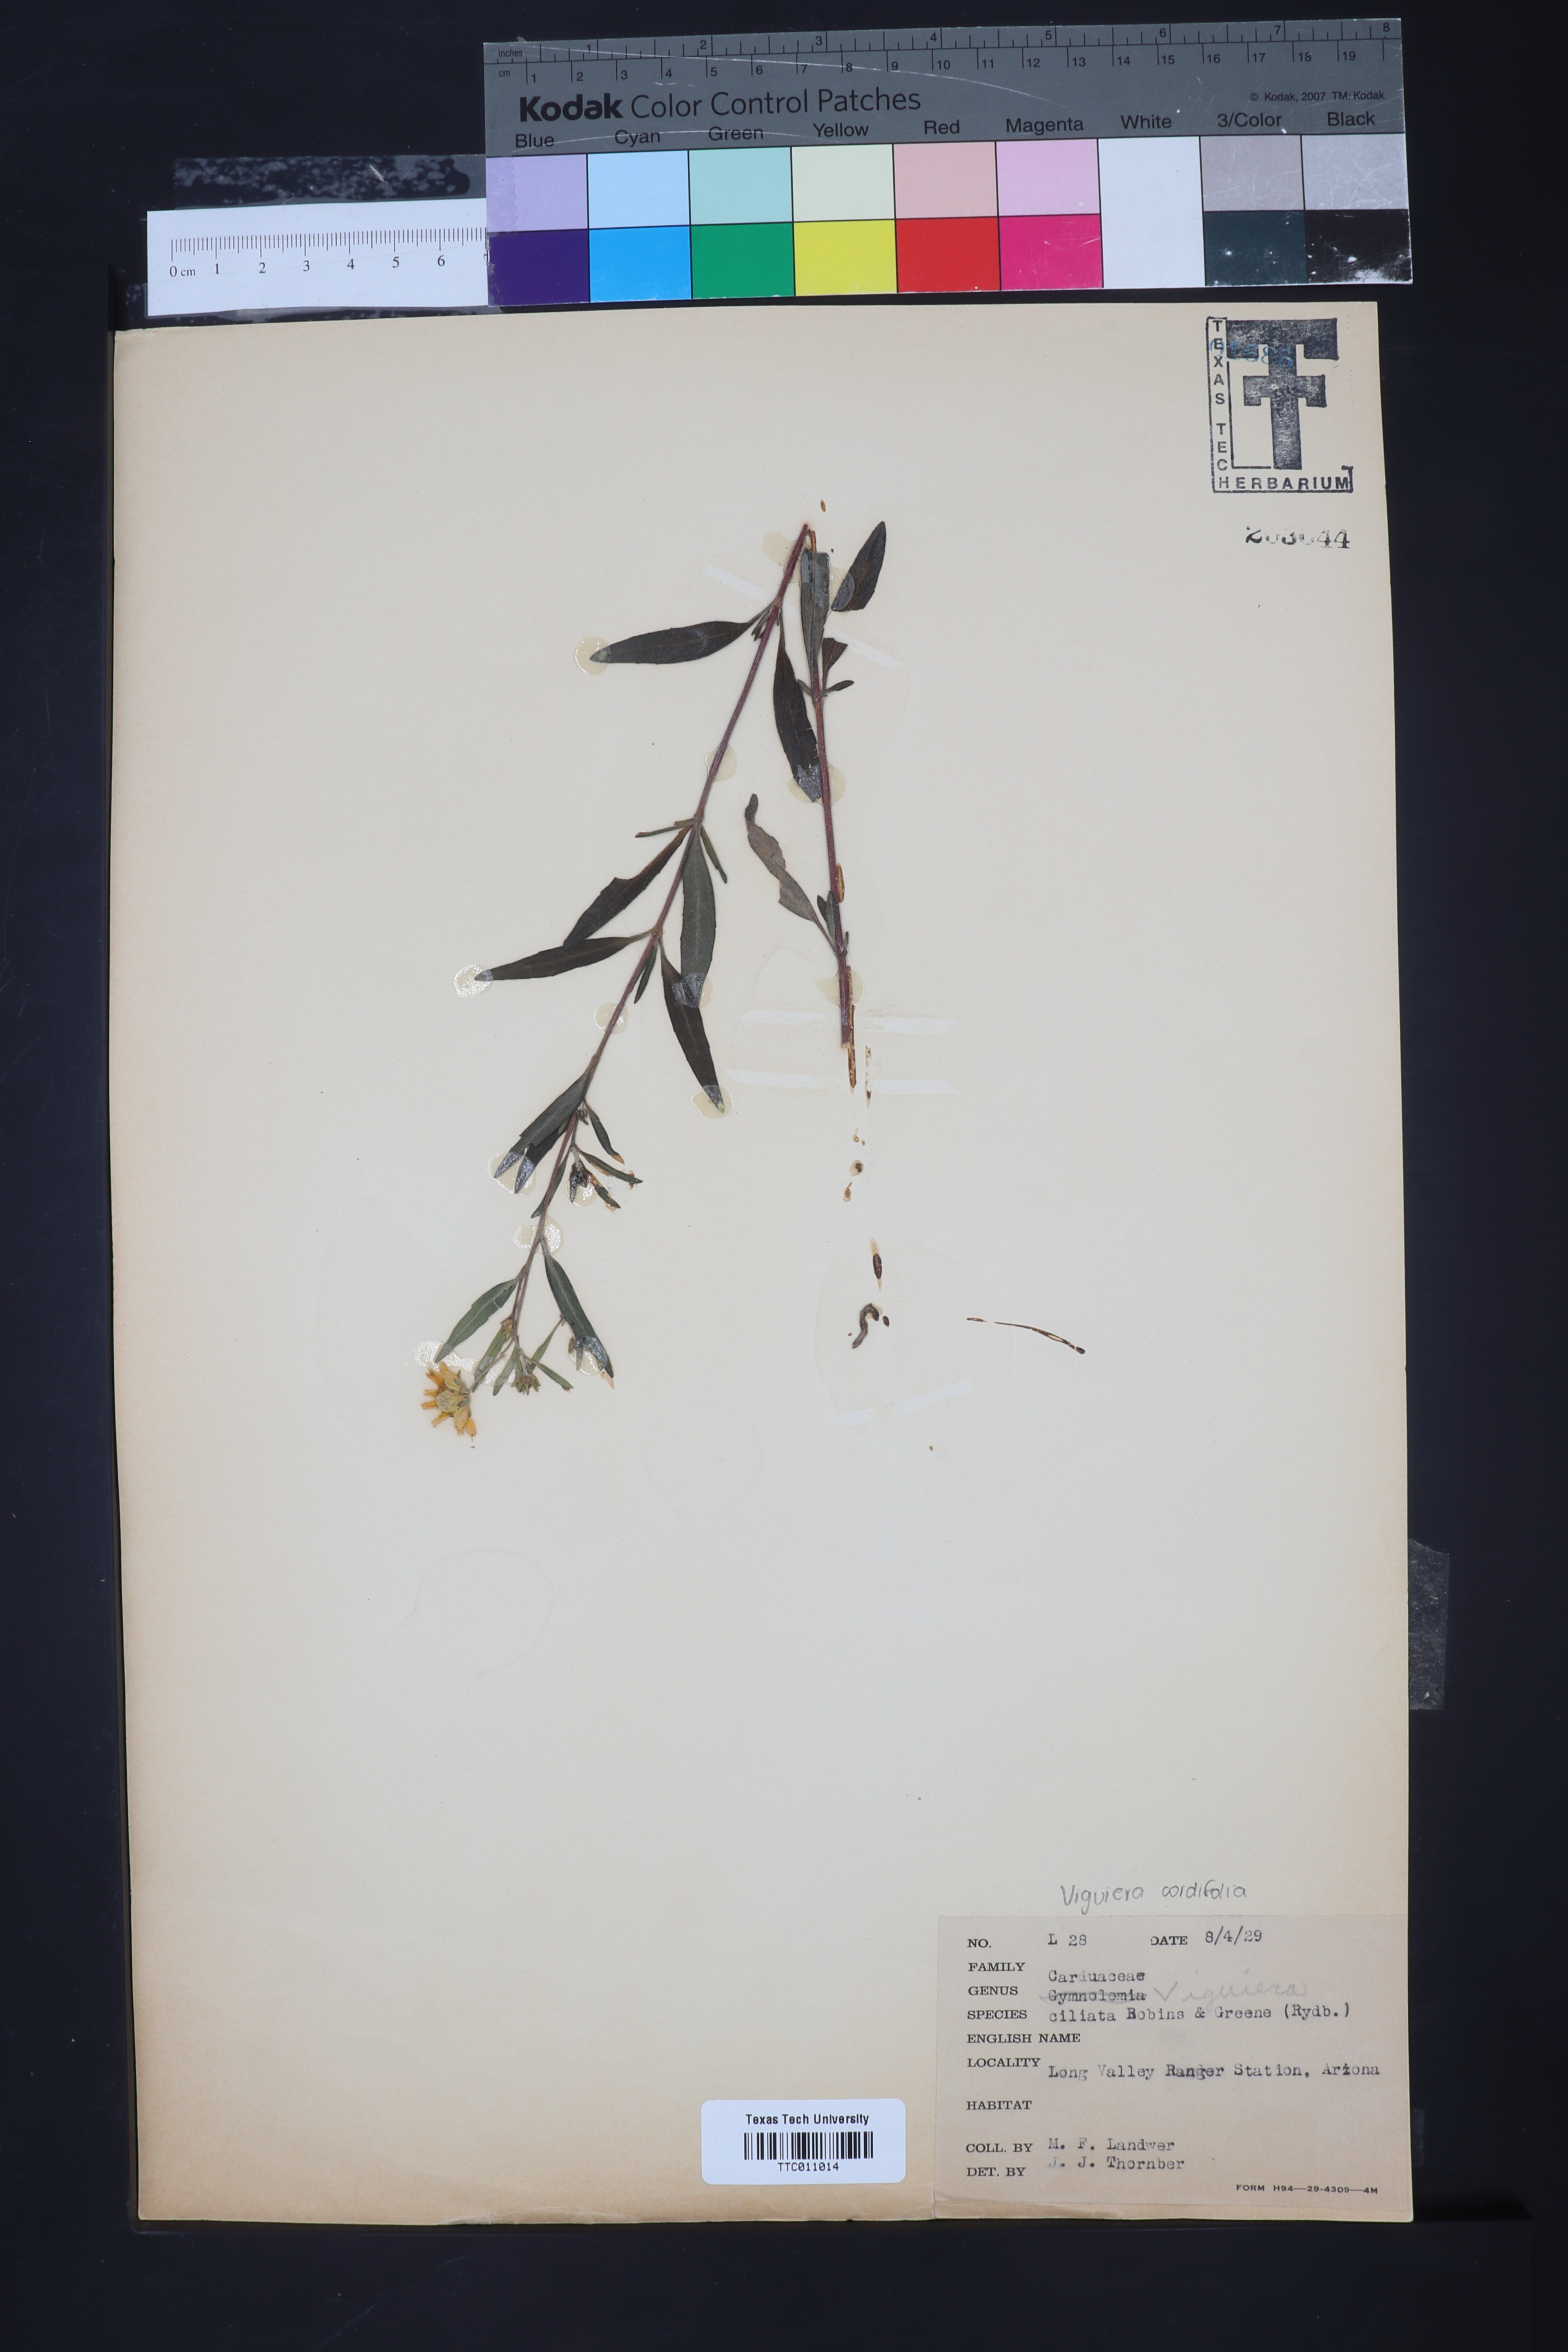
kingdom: Plantae
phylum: Tracheophyta
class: Magnoliopsida
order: Asterales
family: Asteraceae
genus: Heliomeris
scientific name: Heliomeris hispida
